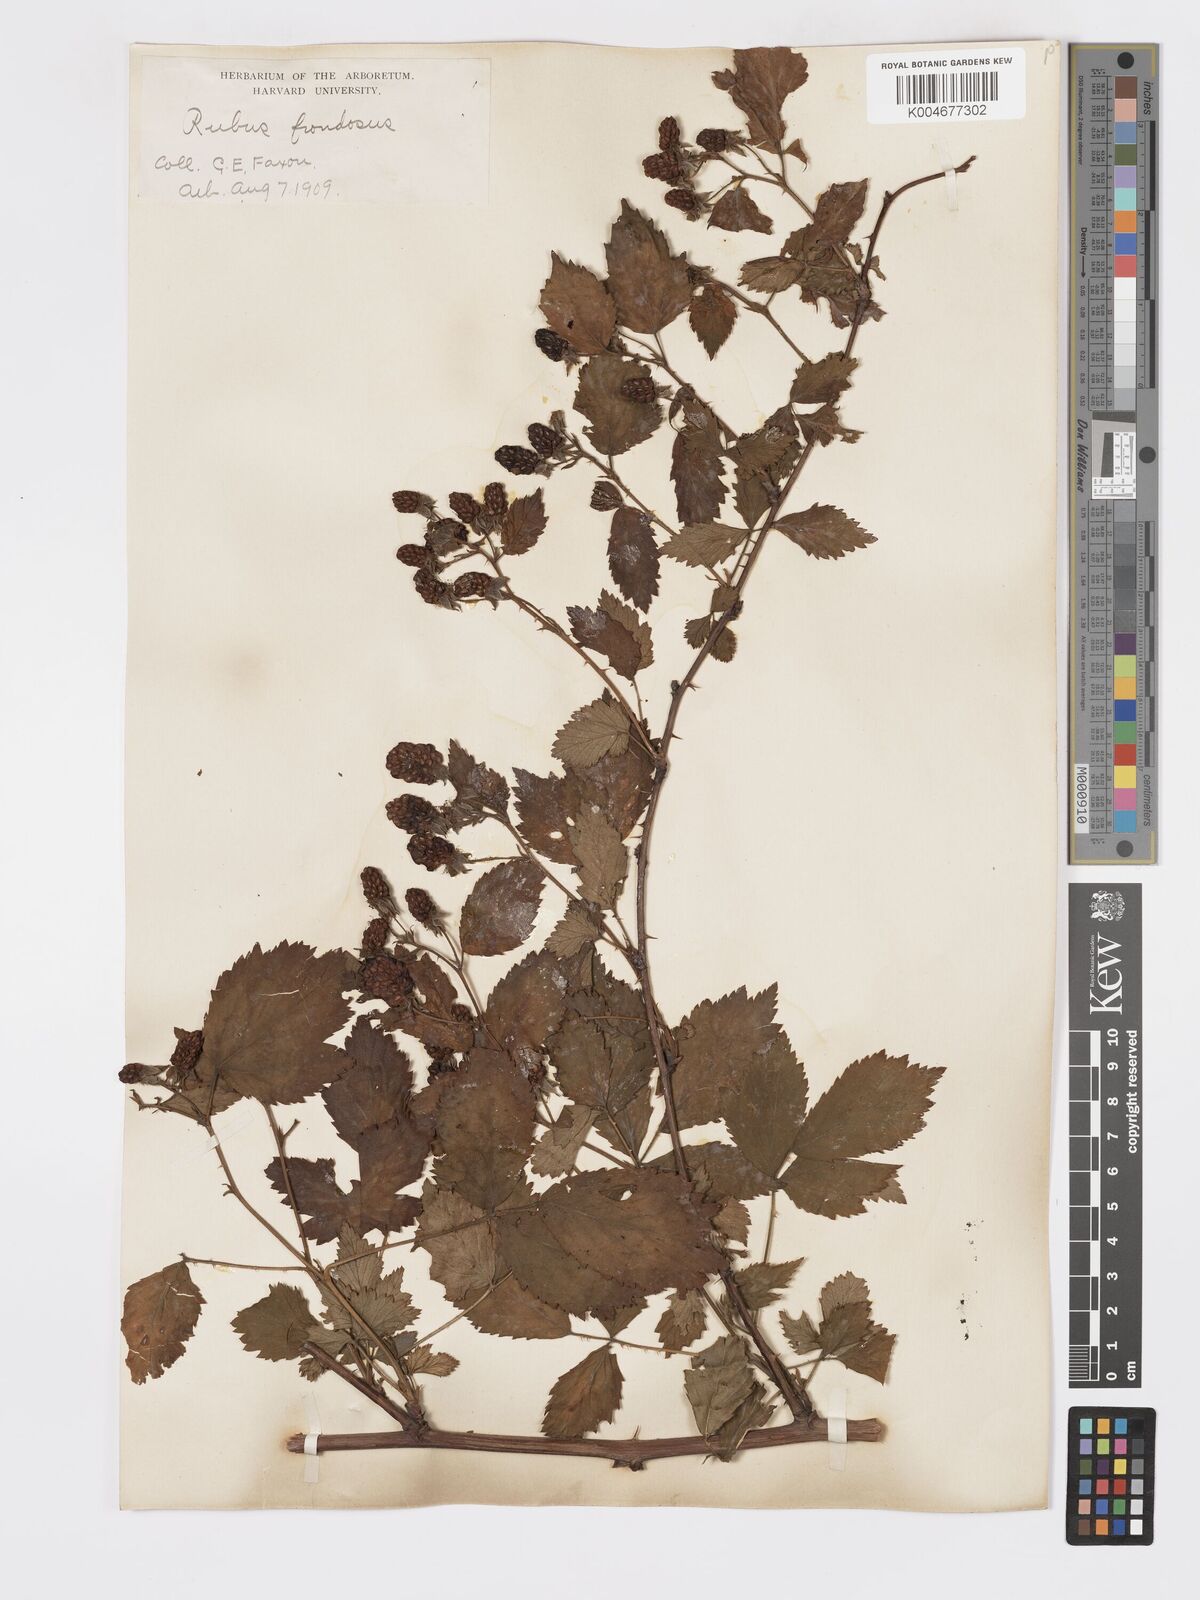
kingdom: Plantae
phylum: Tracheophyta
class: Magnoliopsida
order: Rosales
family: Rosaceae
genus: Rubus
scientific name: Rubus frondosus
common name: Yankee blackberry
